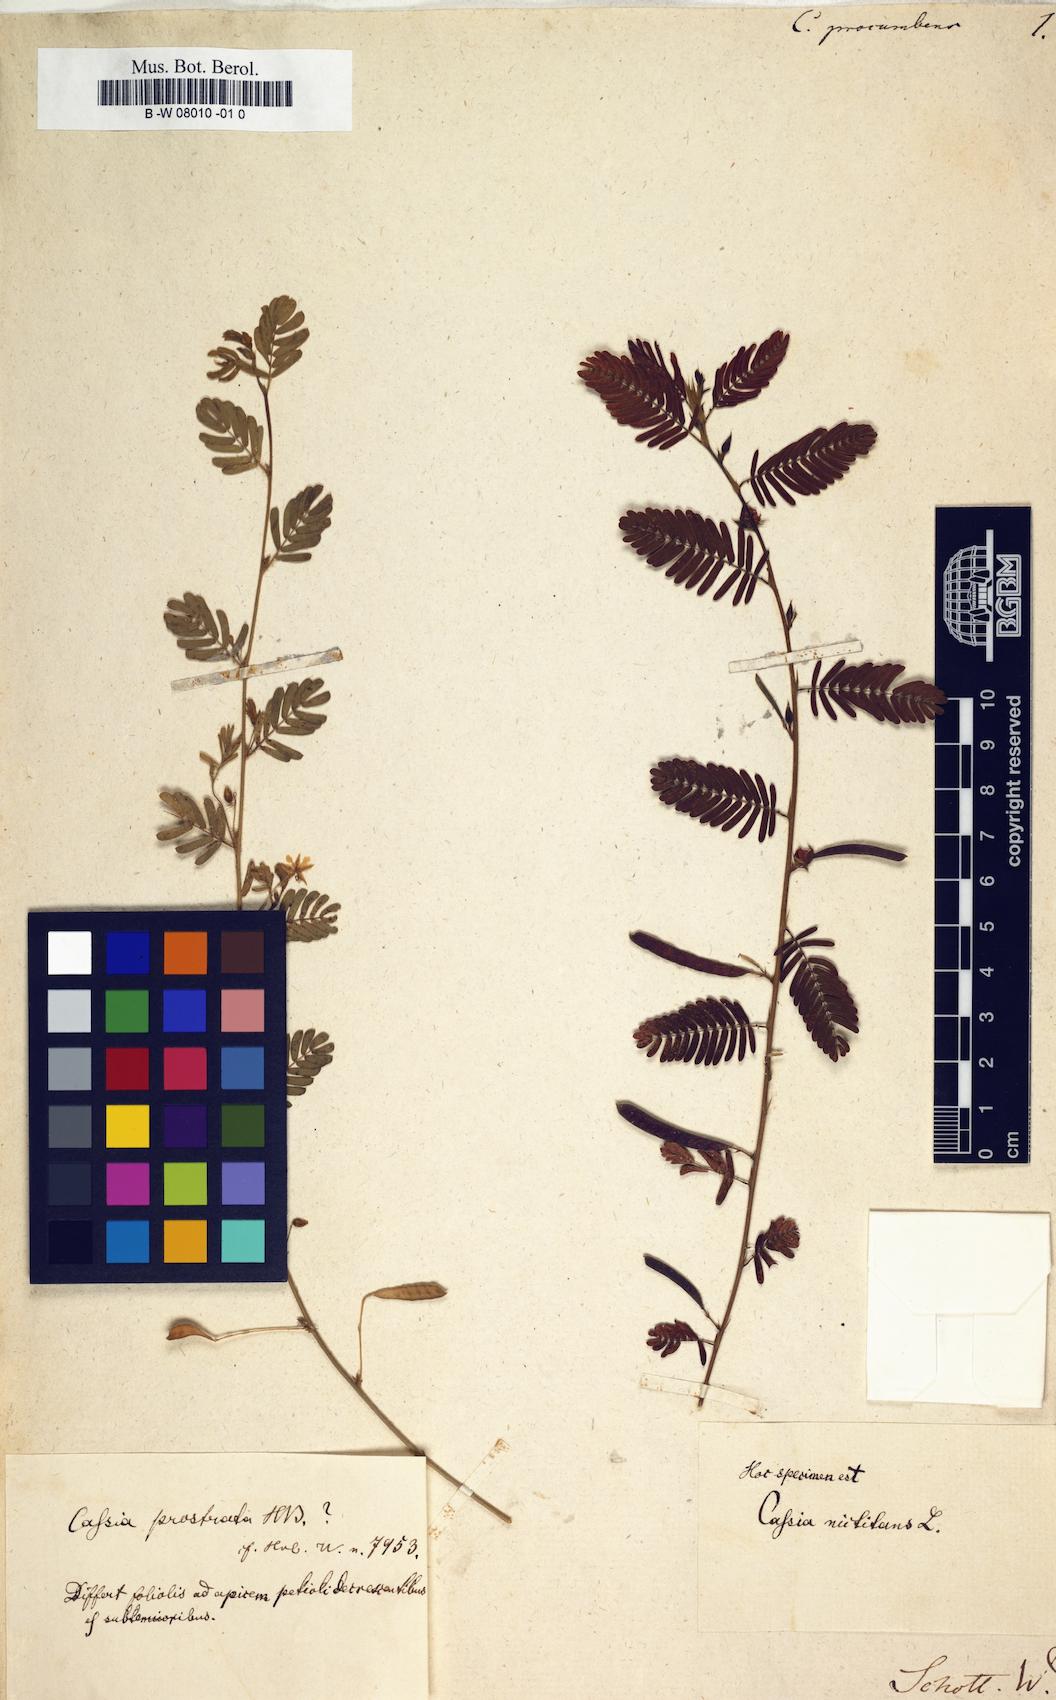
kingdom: Plantae
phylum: Tracheophyta
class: Magnoliopsida
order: Fabales
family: Fabaceae
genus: Chamaecrista
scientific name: Chamaecrista
